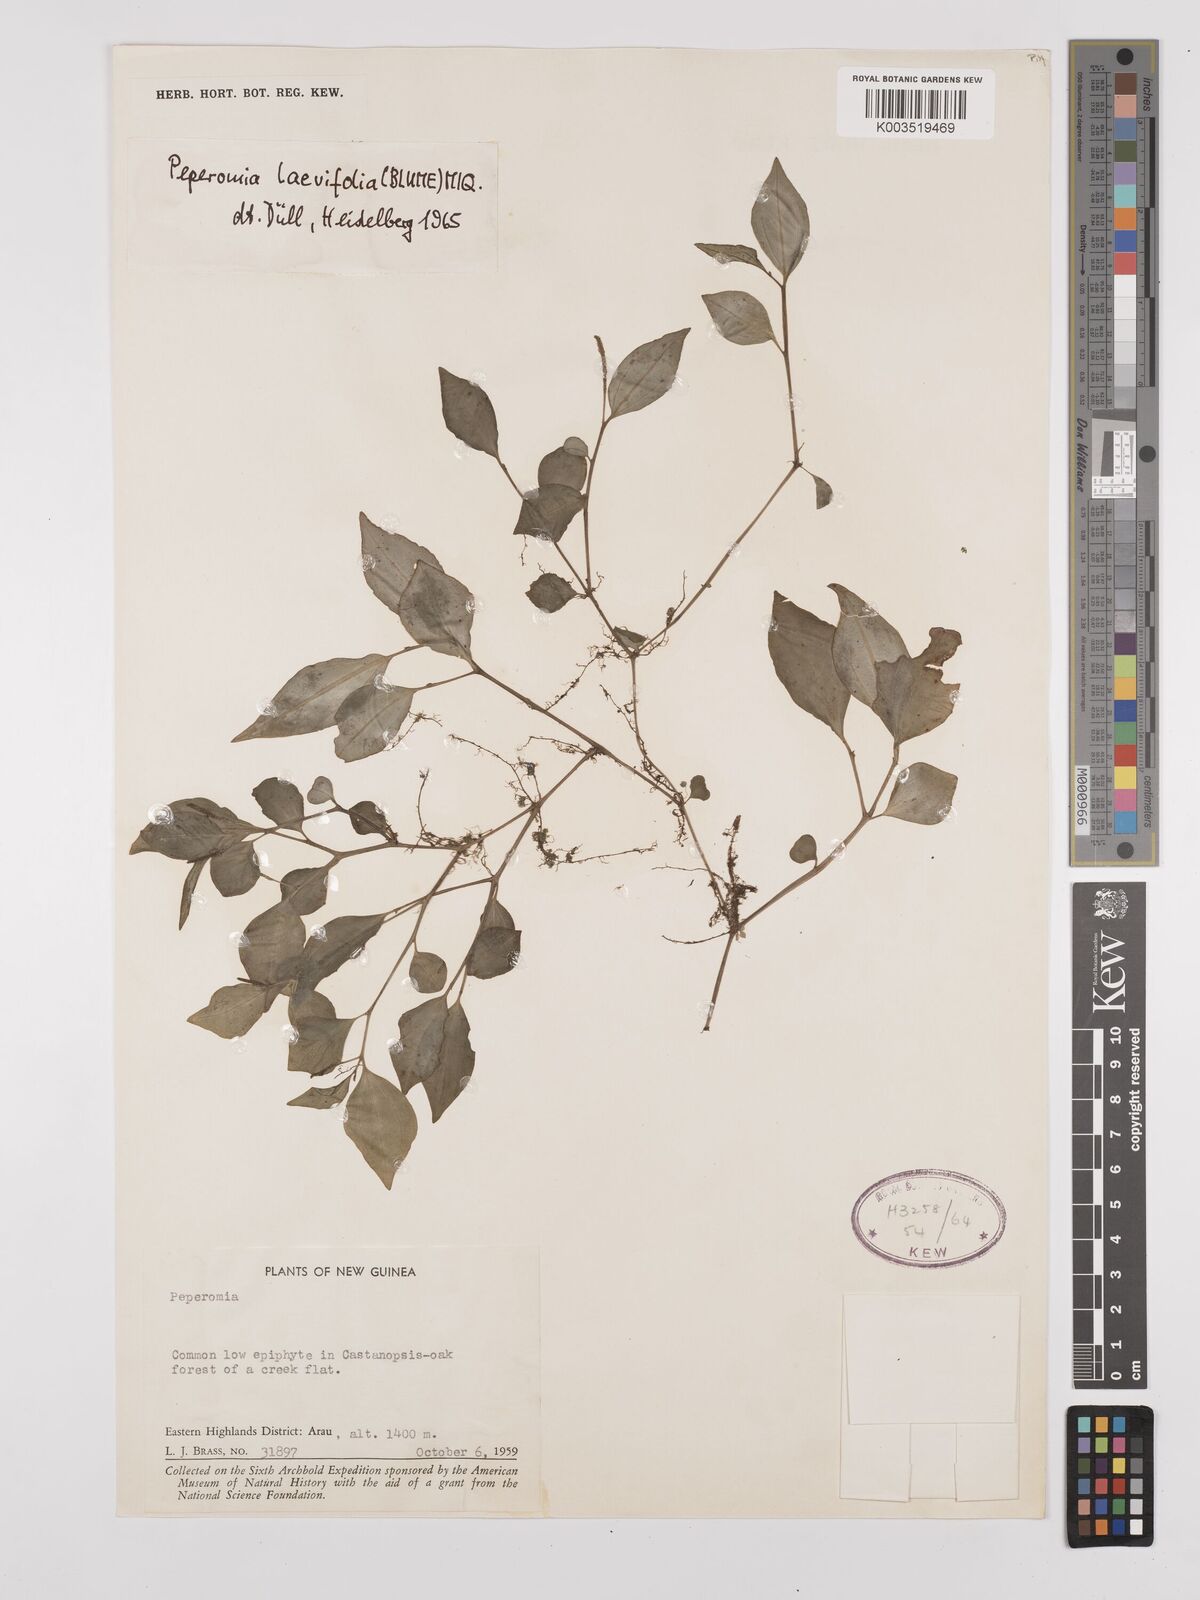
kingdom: Plantae
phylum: Tracheophyta
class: Magnoliopsida
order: Piperales
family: Piperaceae
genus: Peperomia
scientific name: Peperomia laevifolia
